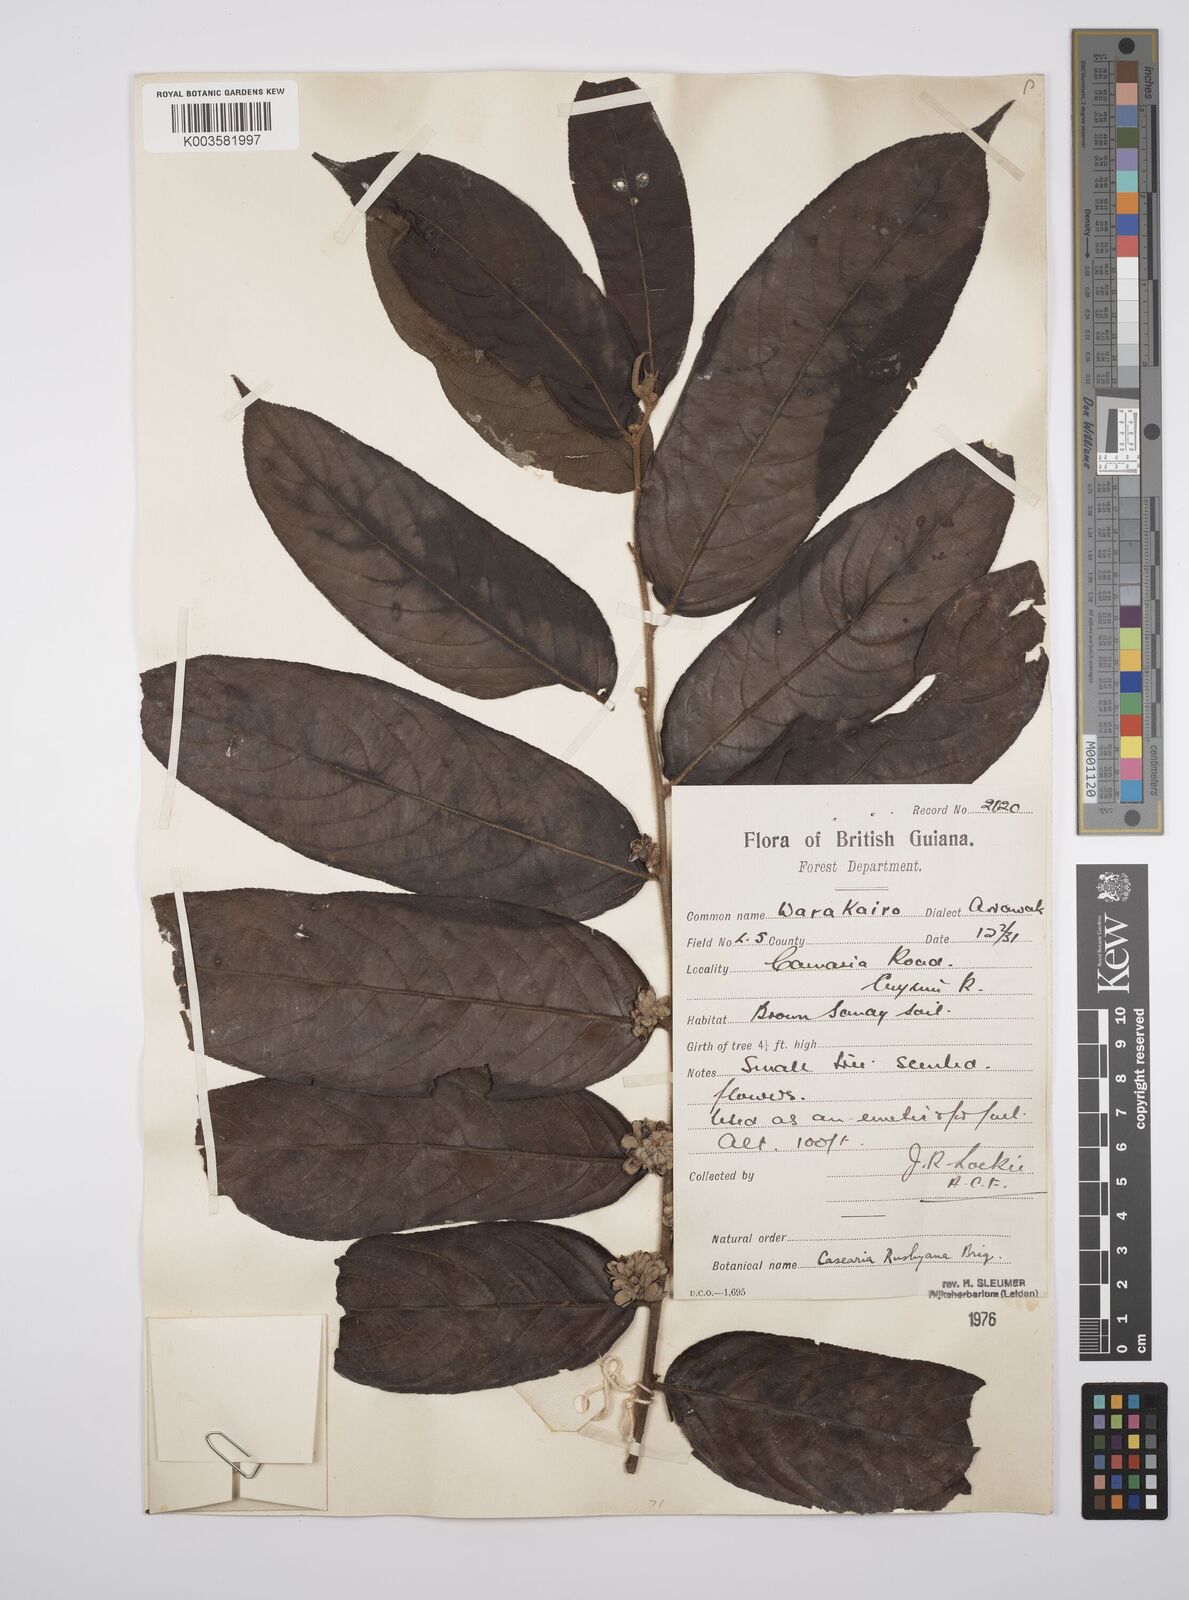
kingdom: Plantae
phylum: Tracheophyta
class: Magnoliopsida
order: Malpighiales
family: Salicaceae
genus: Casearia
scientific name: Casearia rusbyana
